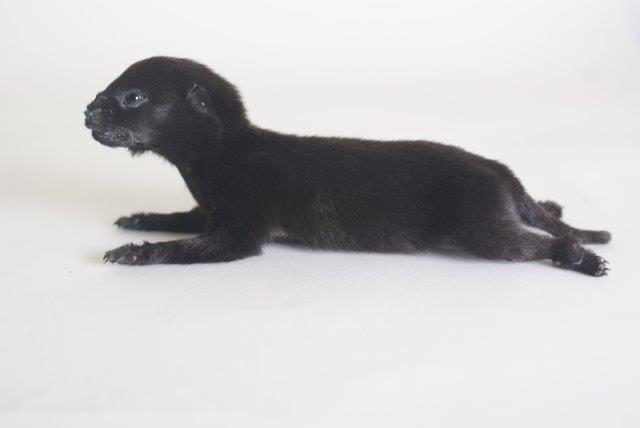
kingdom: Animalia
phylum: Chordata
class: Mammalia
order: Carnivora
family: Canidae
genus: Canis
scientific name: Canis lupus
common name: Gray wolf
